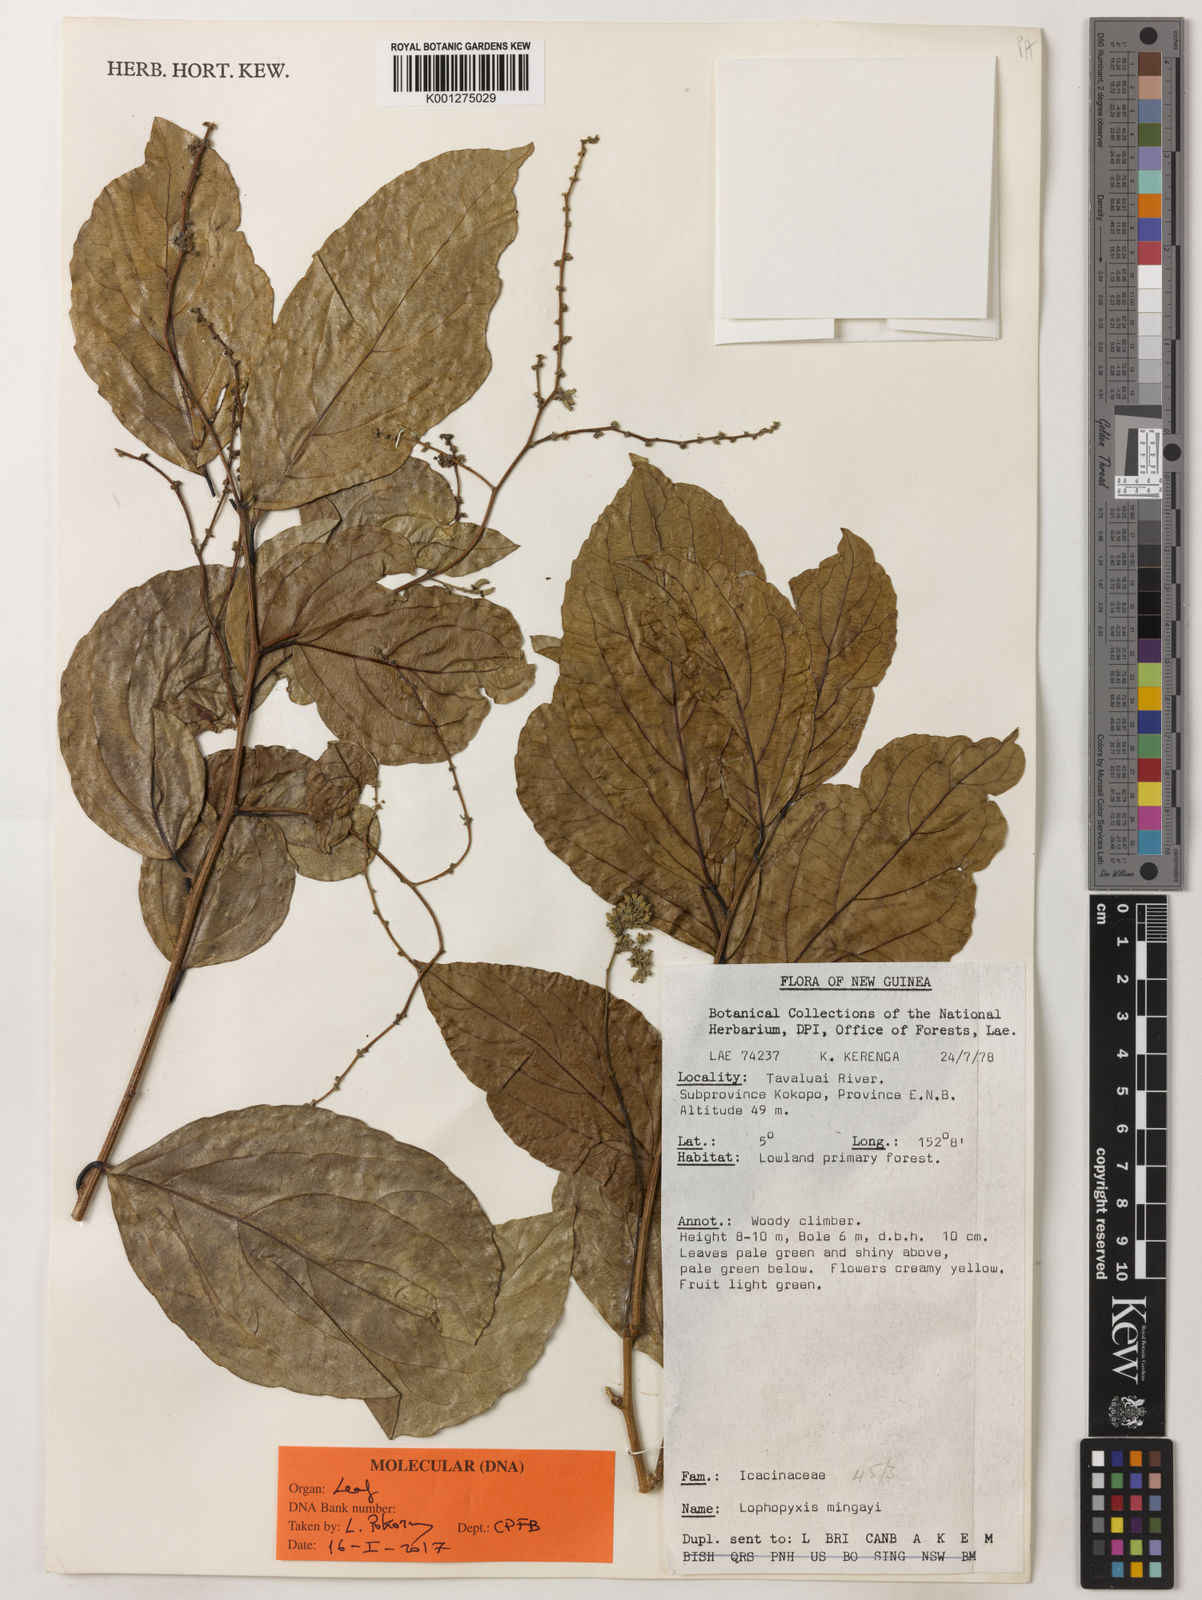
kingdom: Plantae
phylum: Tracheophyta
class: Magnoliopsida
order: Malpighiales
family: Lophopyxidaceae
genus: Lophopyxis
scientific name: Lophopyxis
